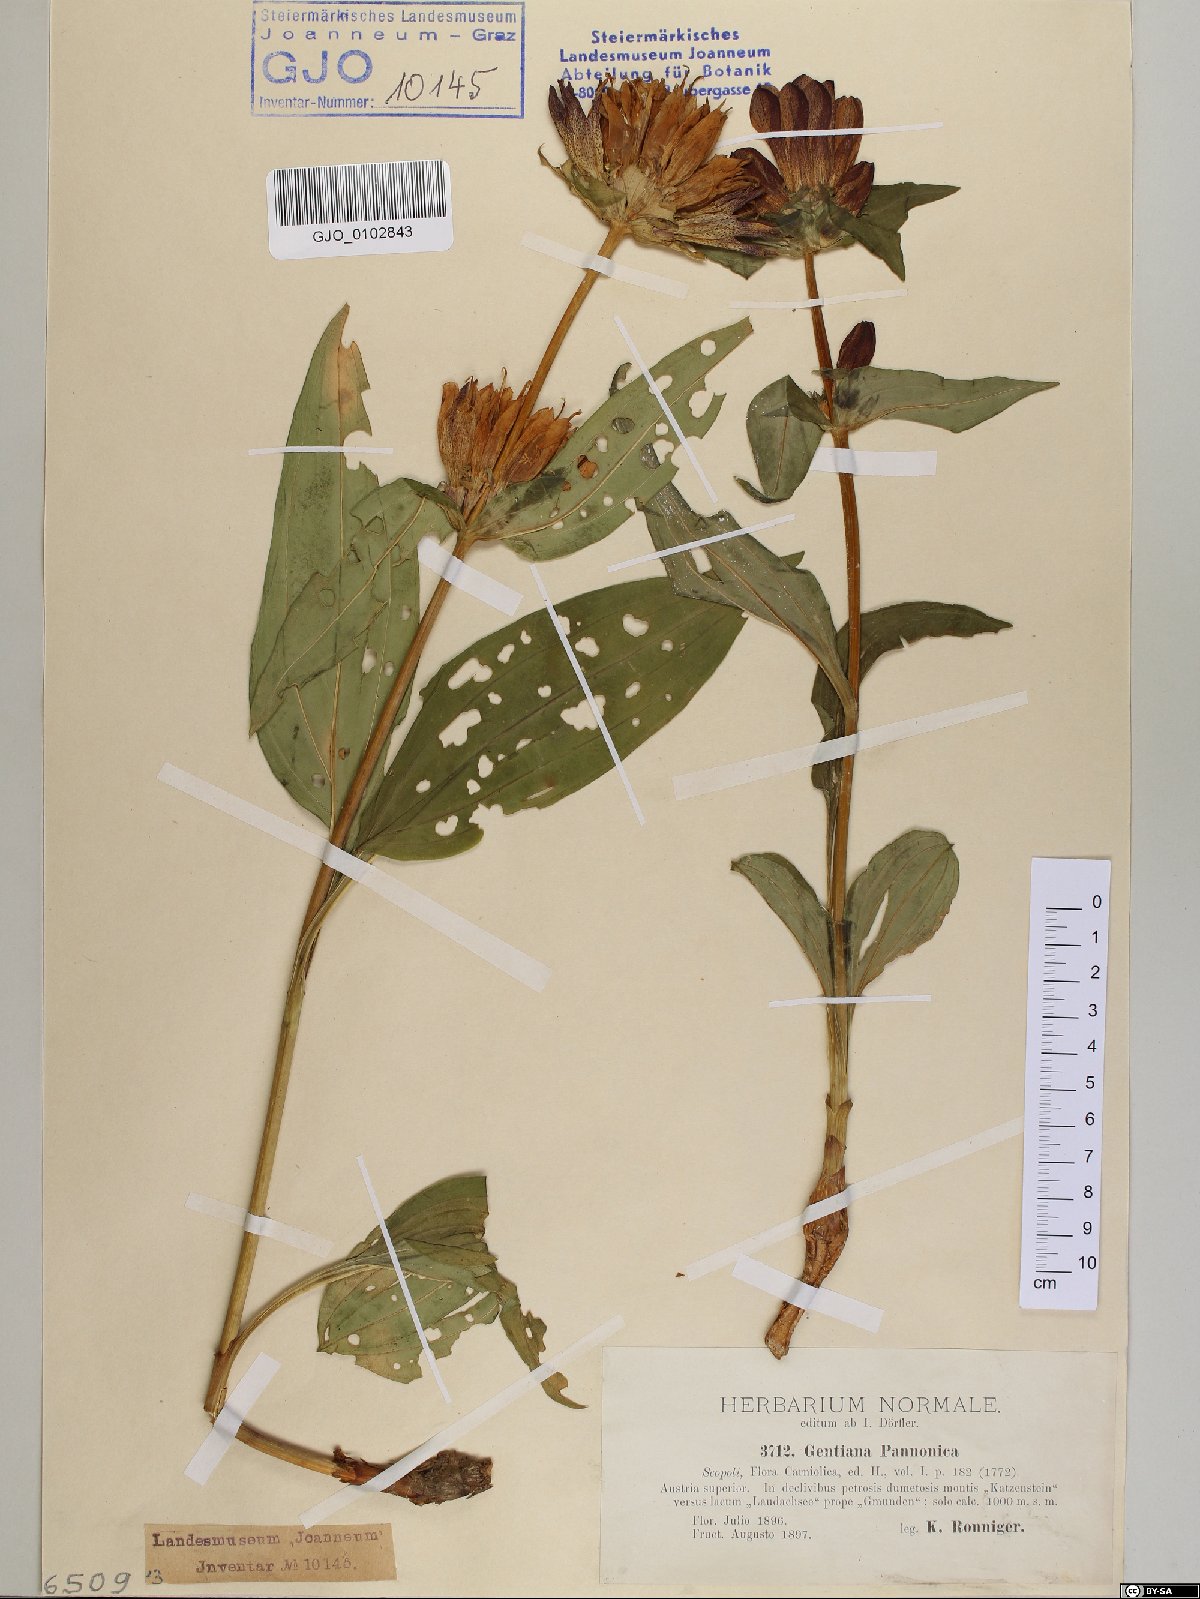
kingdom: Plantae
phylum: Tracheophyta
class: Magnoliopsida
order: Gentianales
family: Gentianaceae
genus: Gentiana
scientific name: Gentiana pannonica
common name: Hungarian gentian
